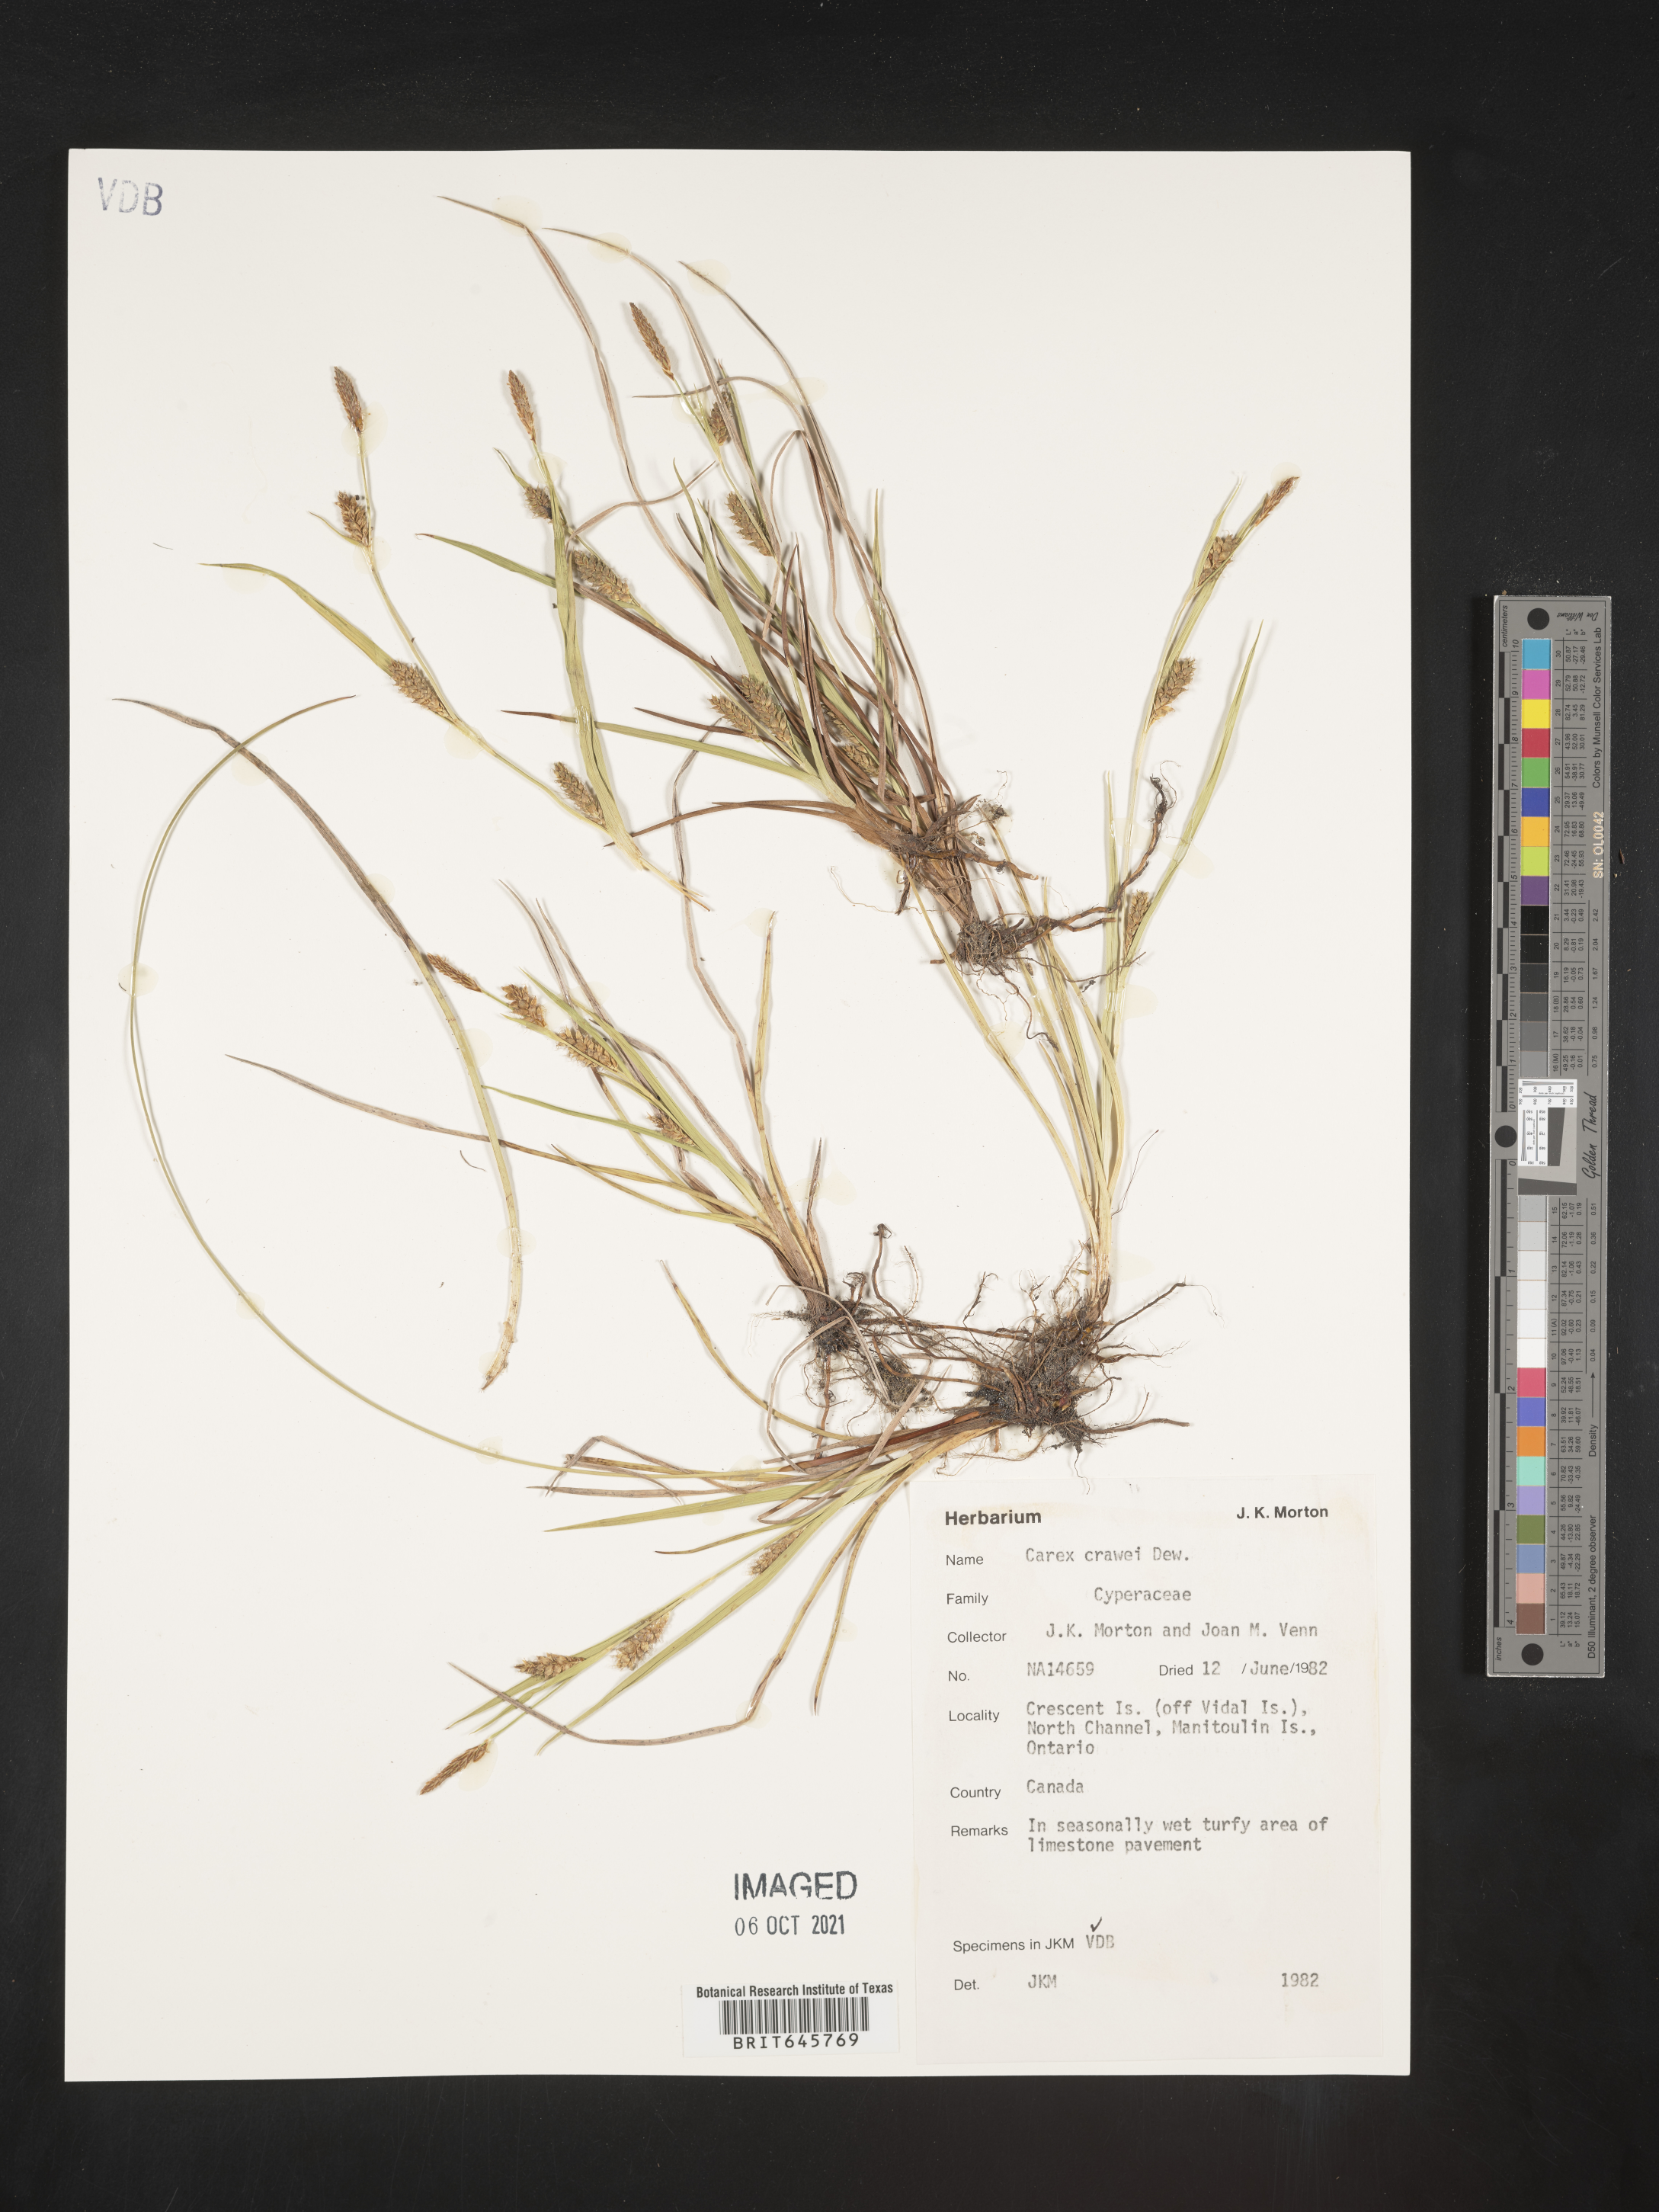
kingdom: Plantae
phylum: Tracheophyta
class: Liliopsida
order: Poales
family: Cyperaceae
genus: Carex
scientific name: Carex crawei
